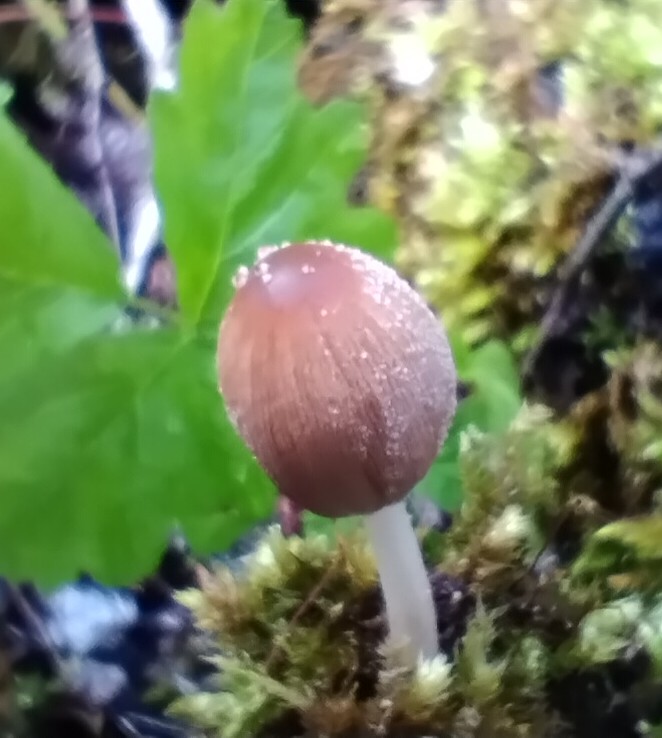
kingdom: Fungi
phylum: Basidiomycota
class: Agaricomycetes
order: Agaricales
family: Psathyrellaceae
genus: Coprinellus
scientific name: Coprinellus radians
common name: grynet blækhat
